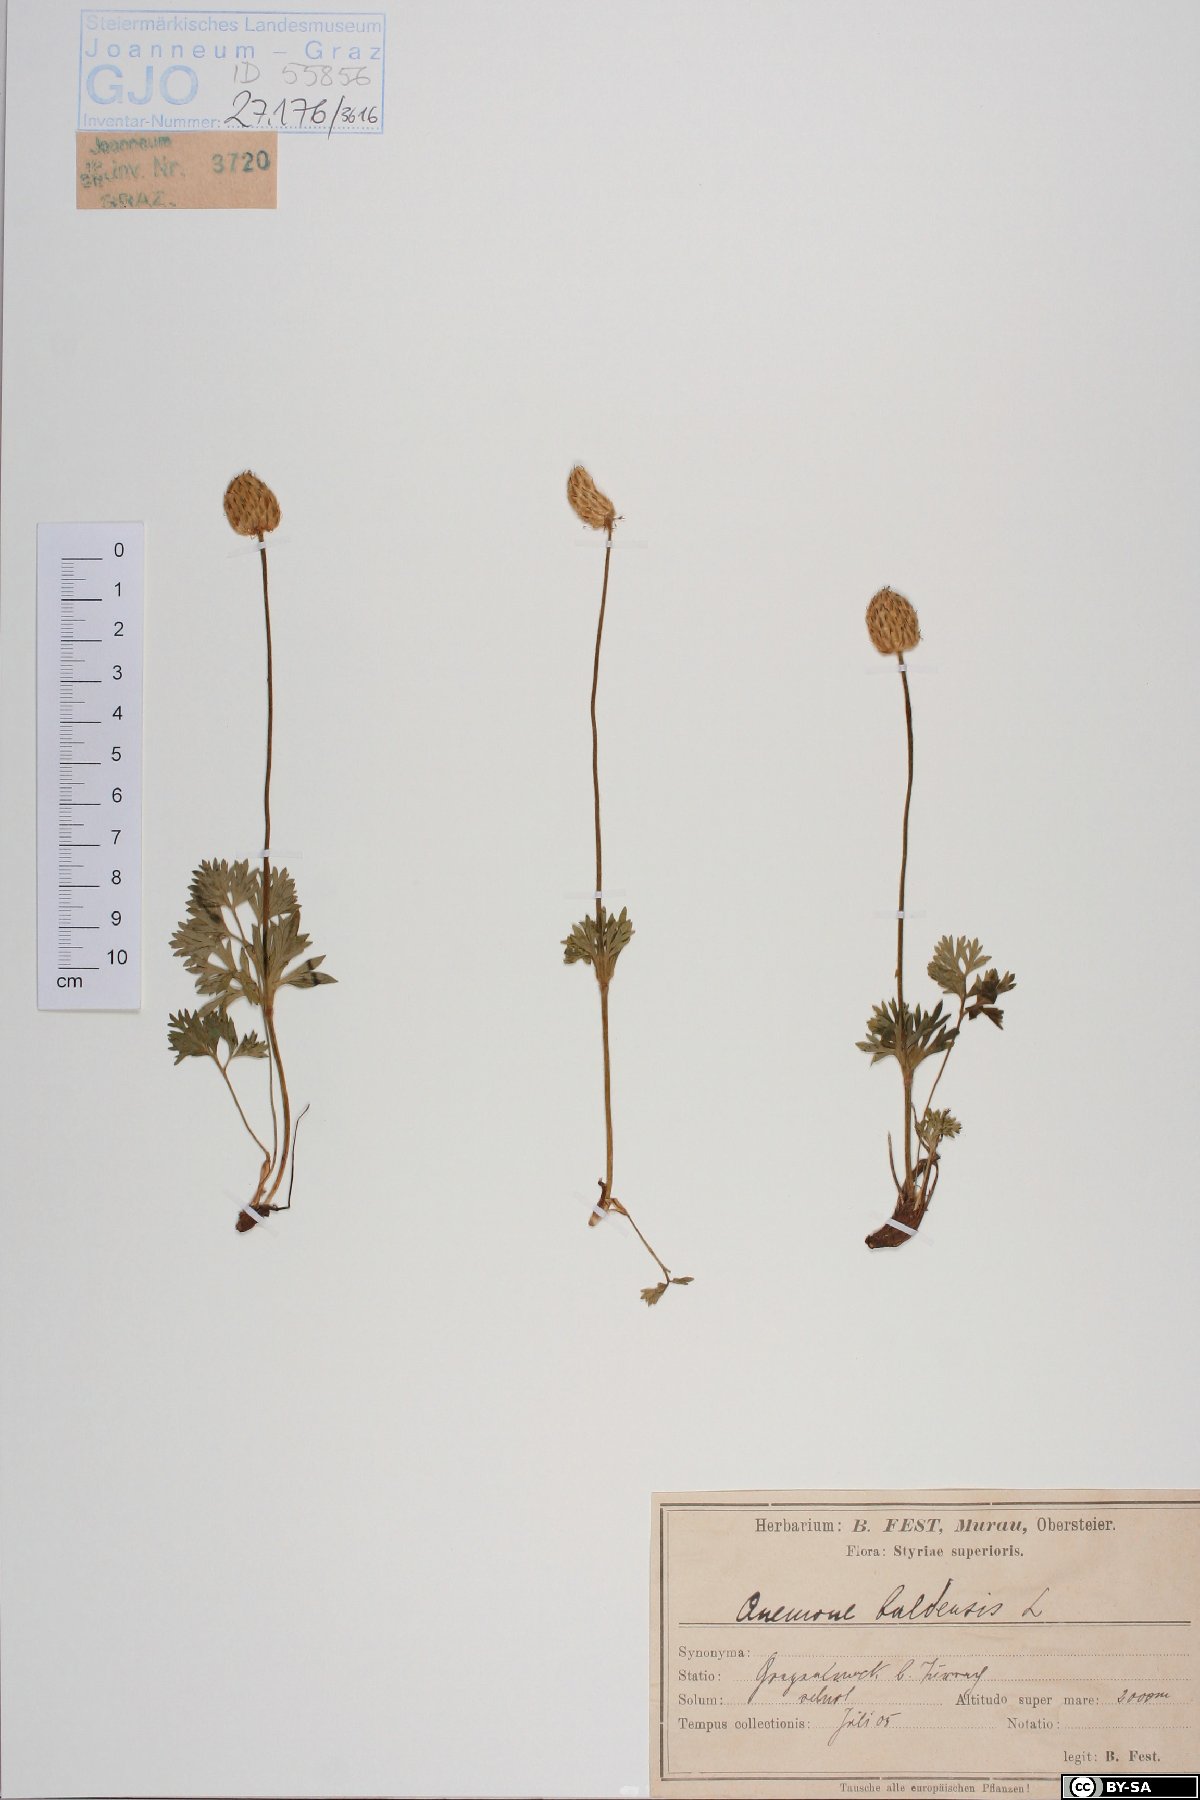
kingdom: Plantae
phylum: Tracheophyta
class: Magnoliopsida
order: Ranunculales
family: Ranunculaceae
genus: Anemone
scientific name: Anemone baldensis
